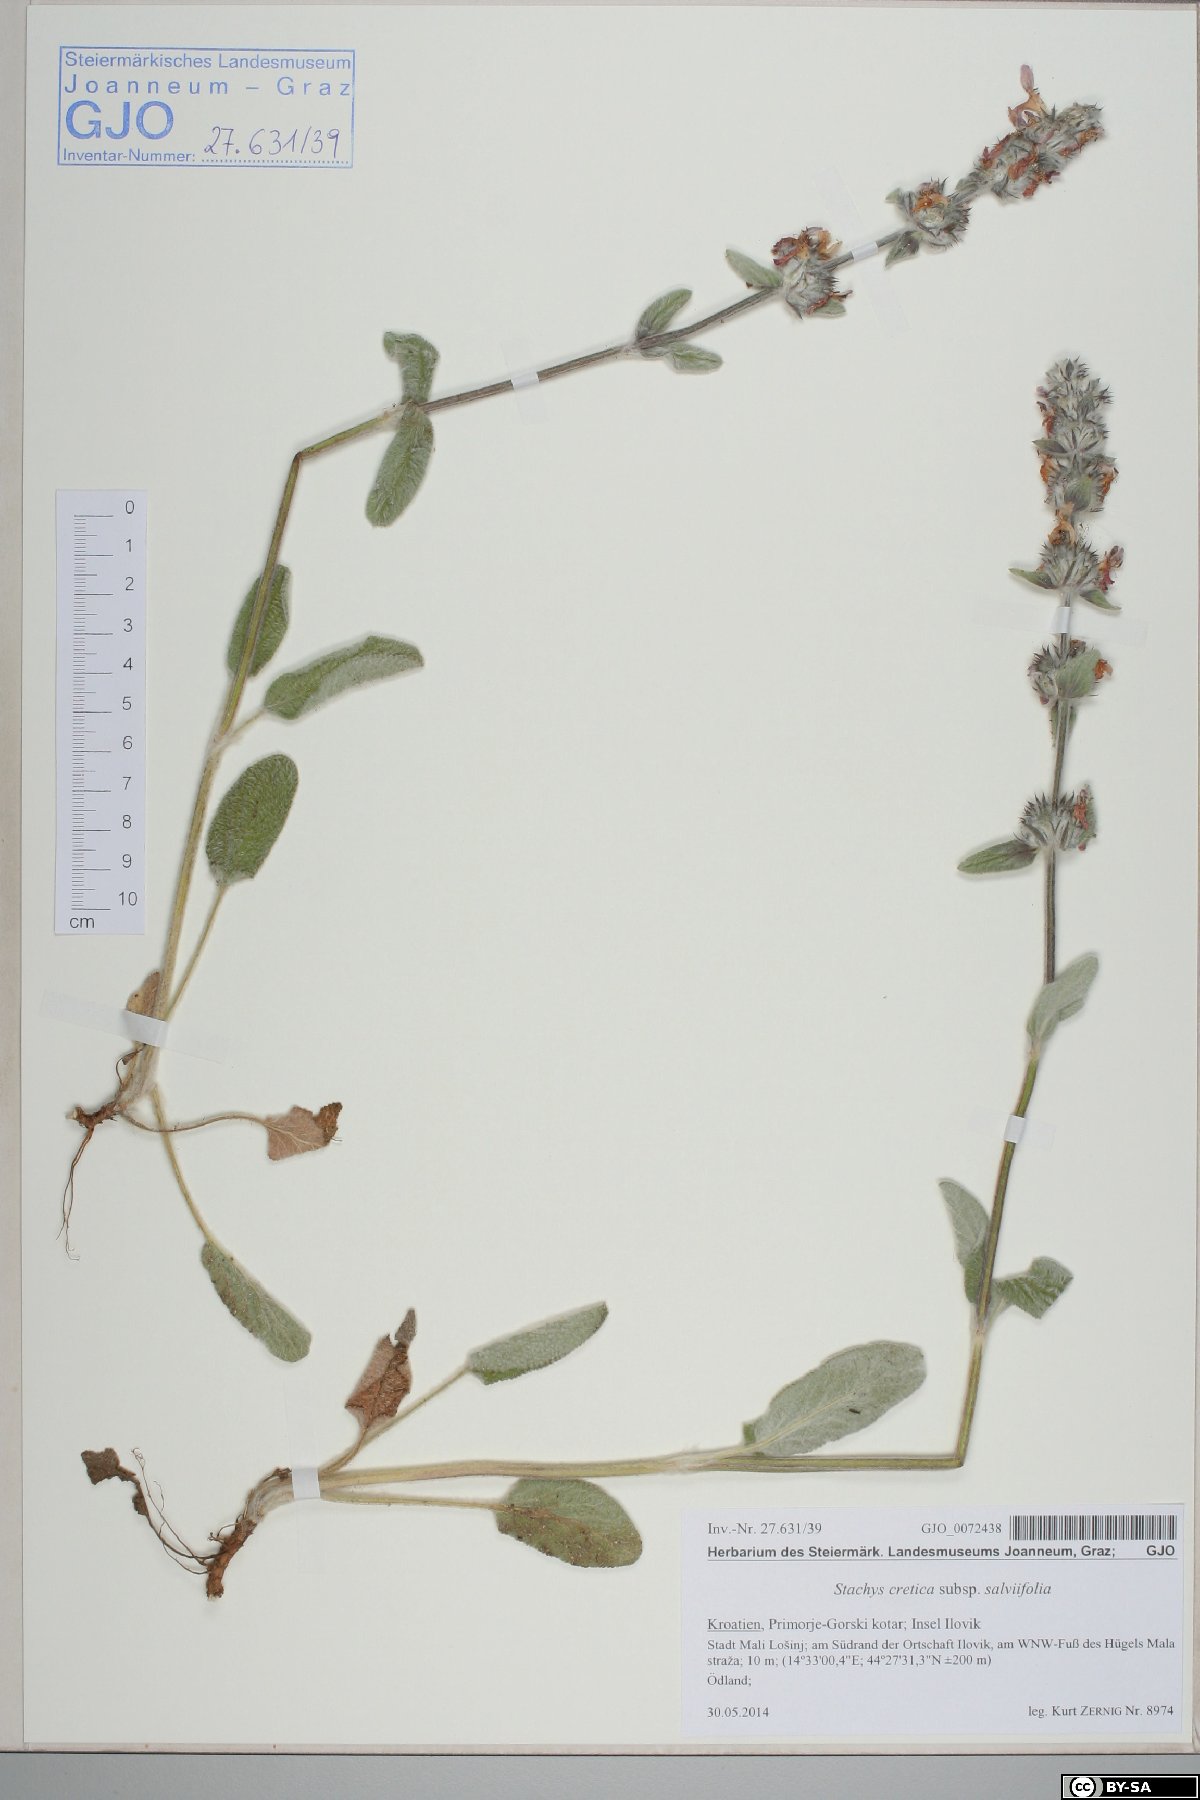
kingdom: Plantae
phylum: Tracheophyta
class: Magnoliopsida
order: Lamiales
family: Lamiaceae
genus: Stachys
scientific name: Stachys cretica
